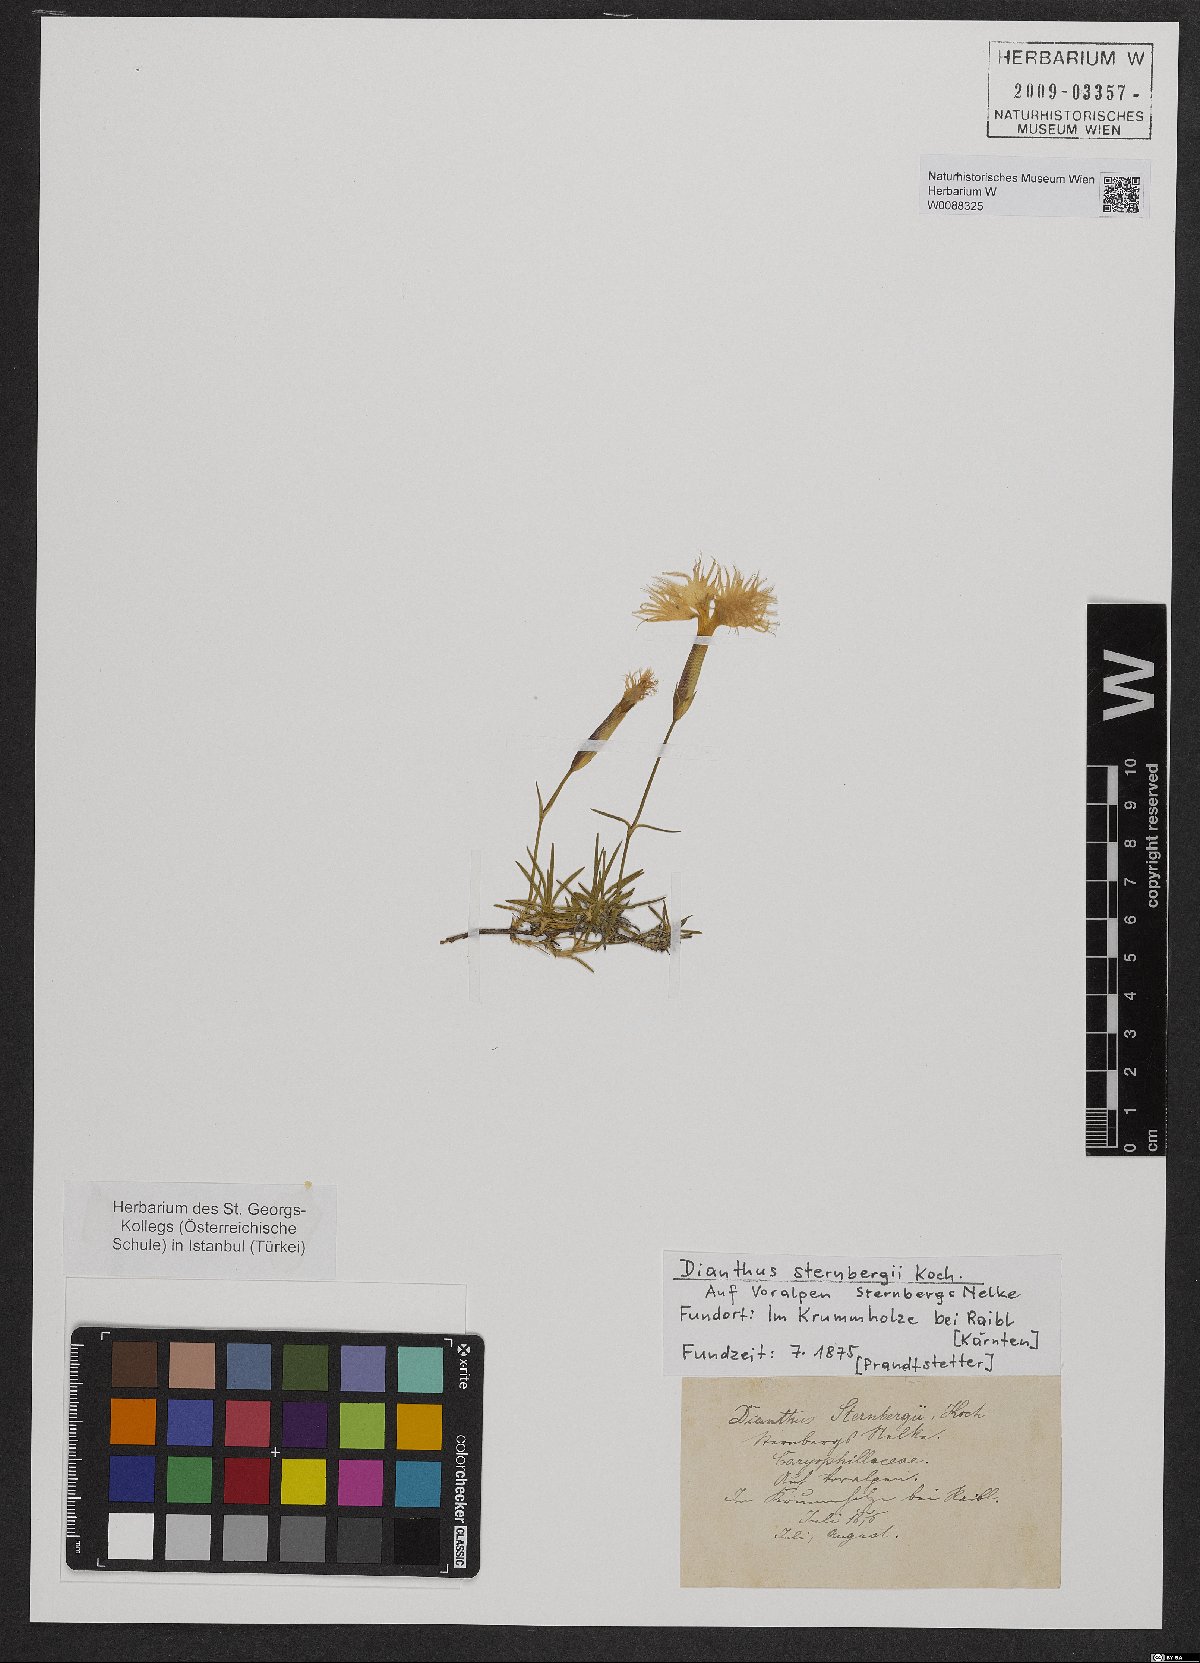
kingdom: Plantae
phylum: Tracheophyta
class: Magnoliopsida
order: Caryophyllales
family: Caryophyllaceae
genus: Dianthus
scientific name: Dianthus sternbergii
